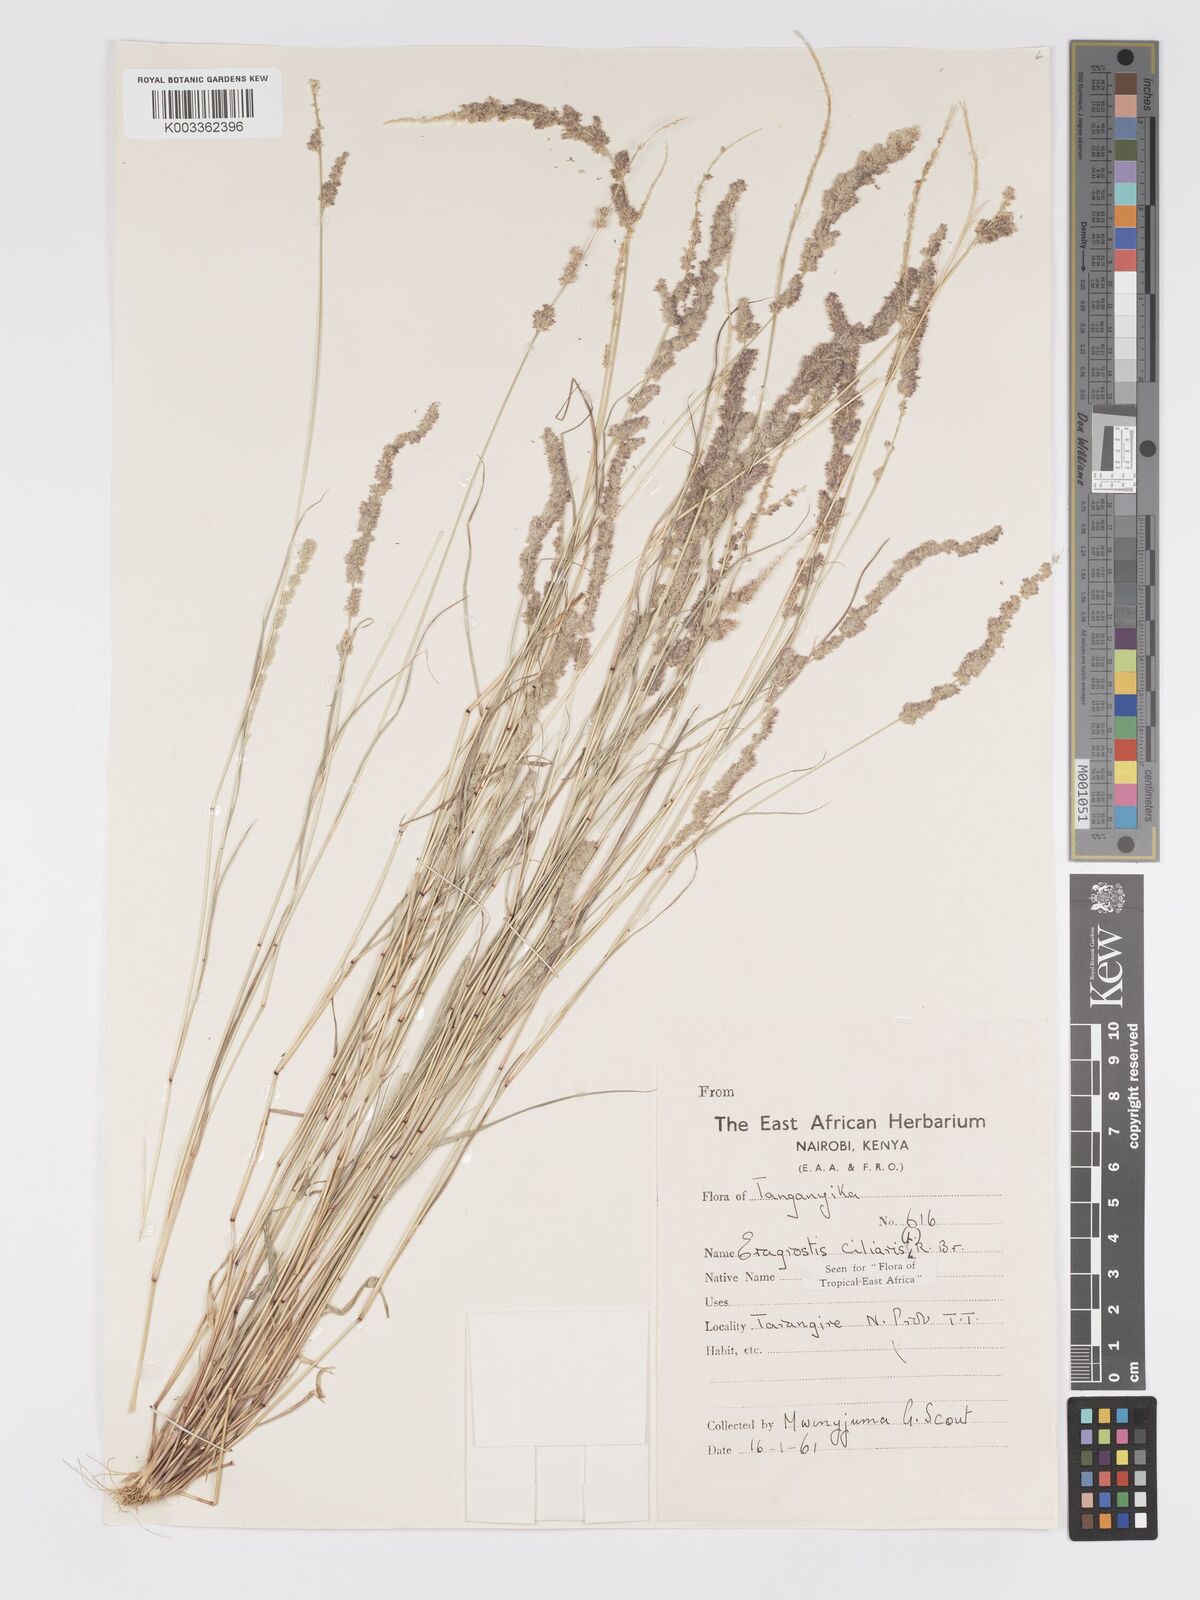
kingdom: Plantae
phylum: Tracheophyta
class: Liliopsida
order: Poales
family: Poaceae
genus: Eragrostis
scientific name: Eragrostis ciliaris
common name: Gophertail lovegrass
